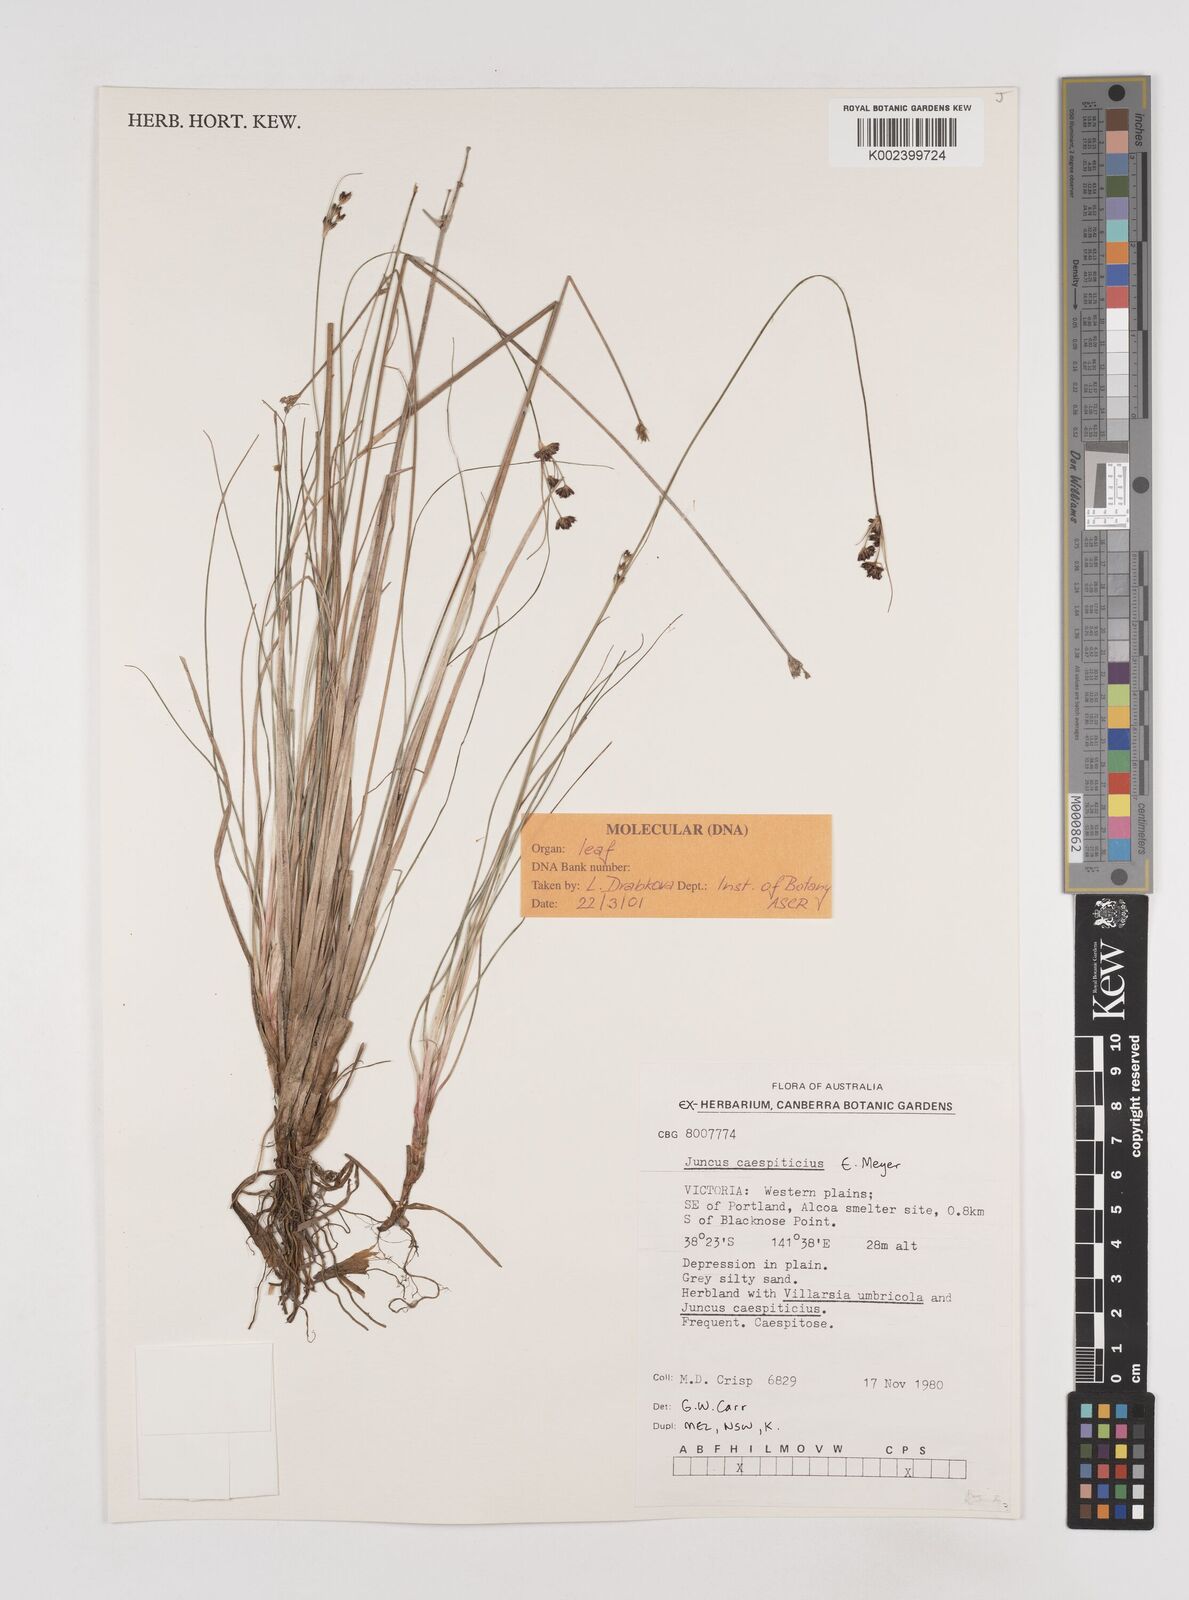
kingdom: Plantae
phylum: Tracheophyta
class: Liliopsida
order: Poales
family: Juncaceae
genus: Juncus
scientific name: Juncus caespiticius
